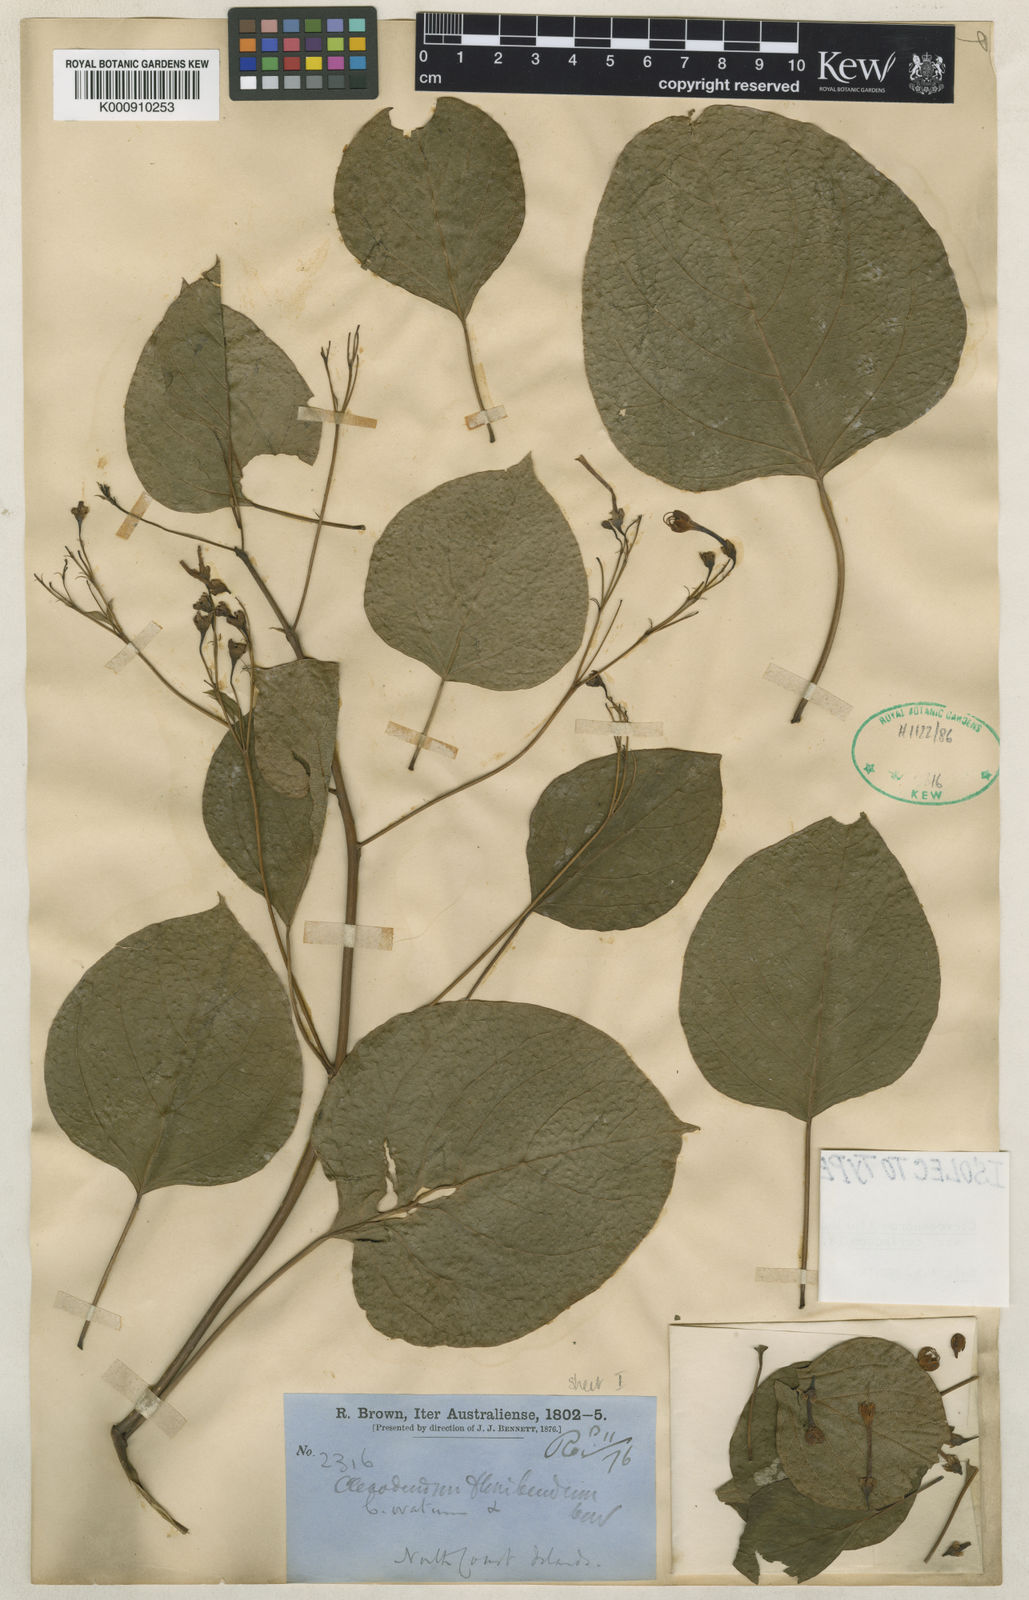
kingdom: Plantae
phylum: Tracheophyta
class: Magnoliopsida
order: Lamiales
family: Lamiaceae
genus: Clerodendrum
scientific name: Clerodendrum floribundum
